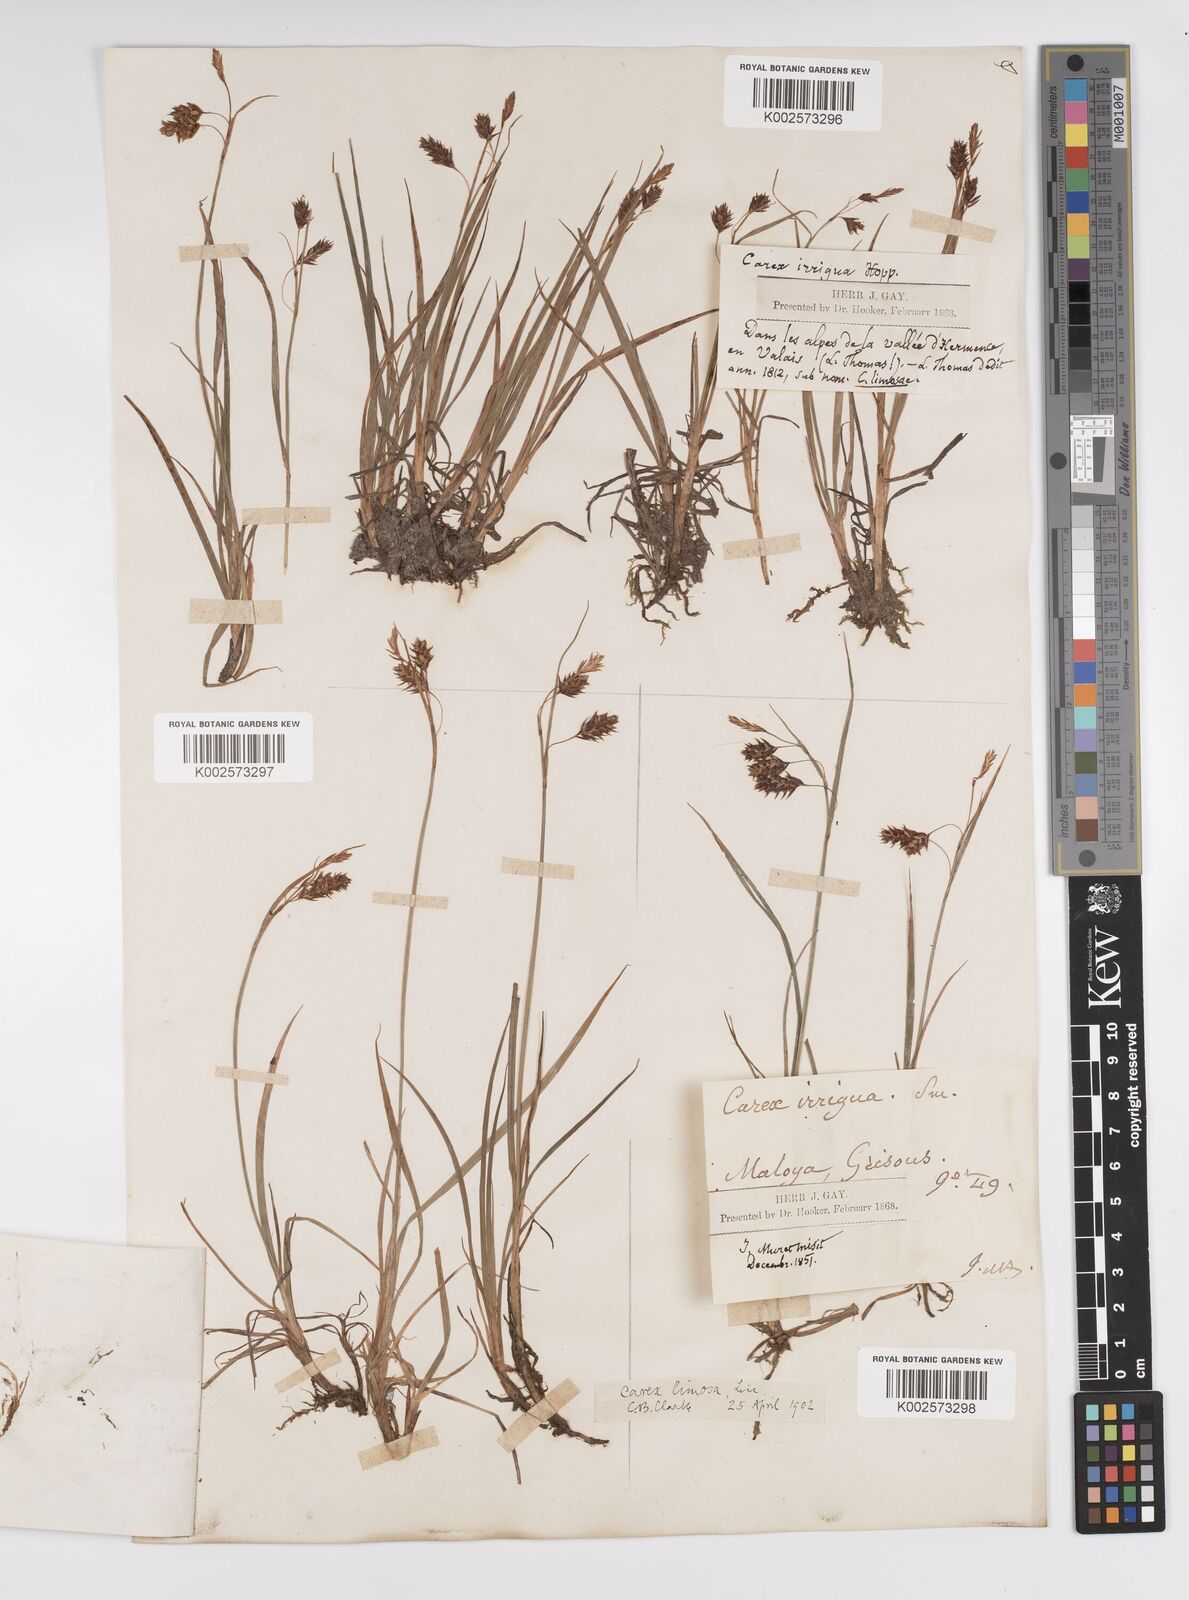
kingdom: Plantae
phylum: Tracheophyta
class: Liliopsida
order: Poales
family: Cyperaceae
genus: Carex
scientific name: Carex magellanica
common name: Bog sedge
